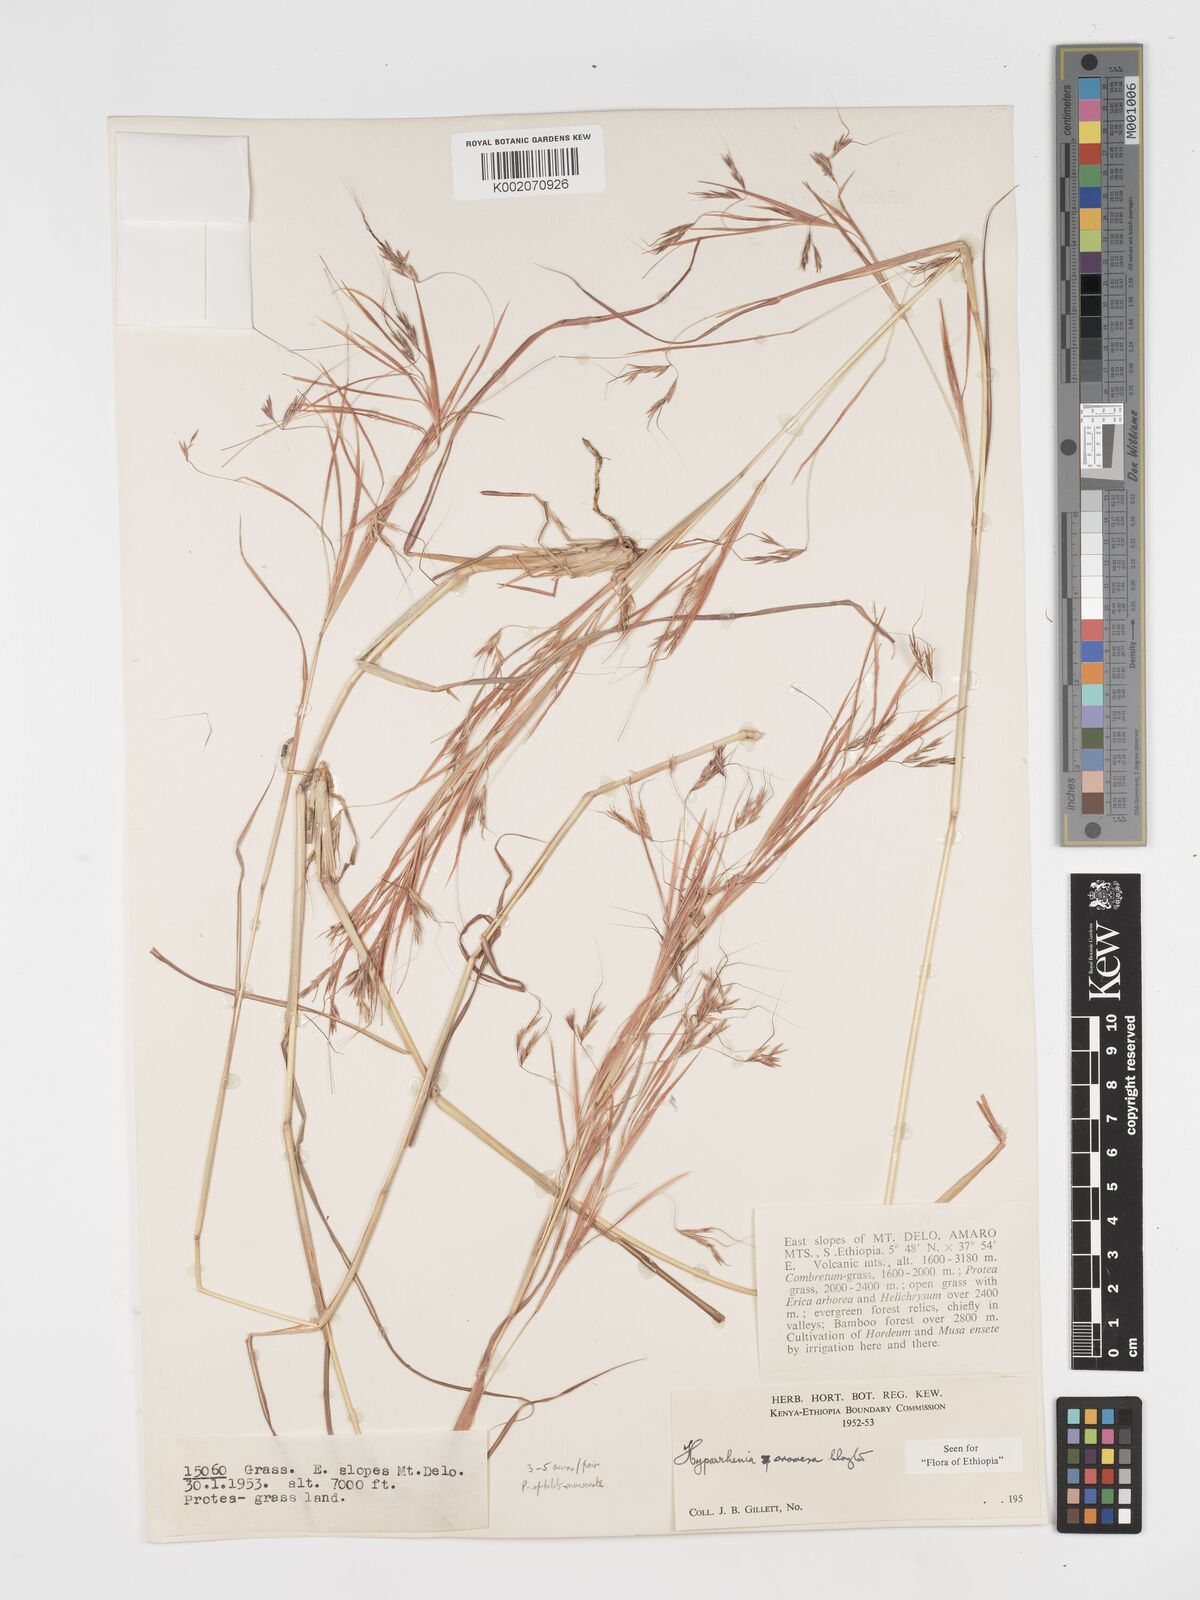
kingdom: Plantae
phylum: Tracheophyta
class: Liliopsida
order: Poales
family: Poaceae
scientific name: Poaceae
